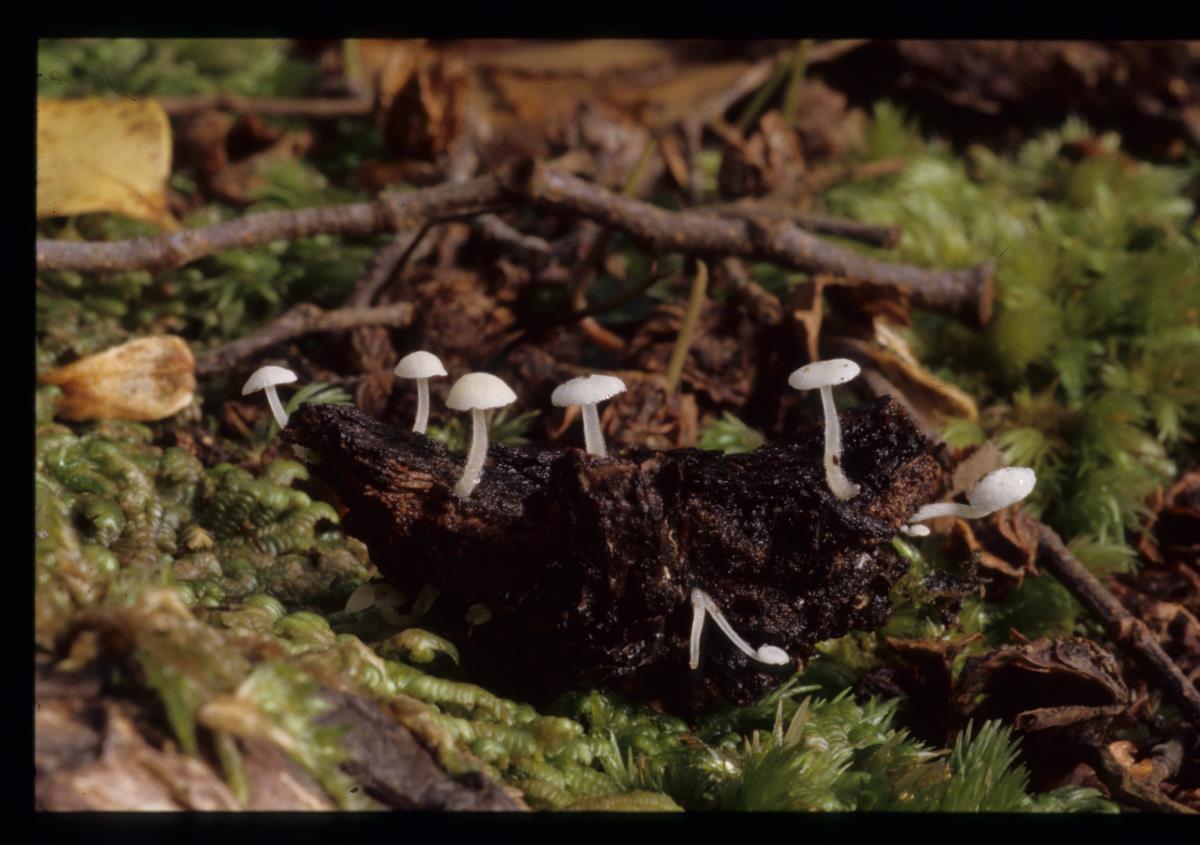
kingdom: Fungi
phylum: Basidiomycota
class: Agaricomycetes
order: Agaricales
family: Marasmiaceae
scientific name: Marasmiaceae
